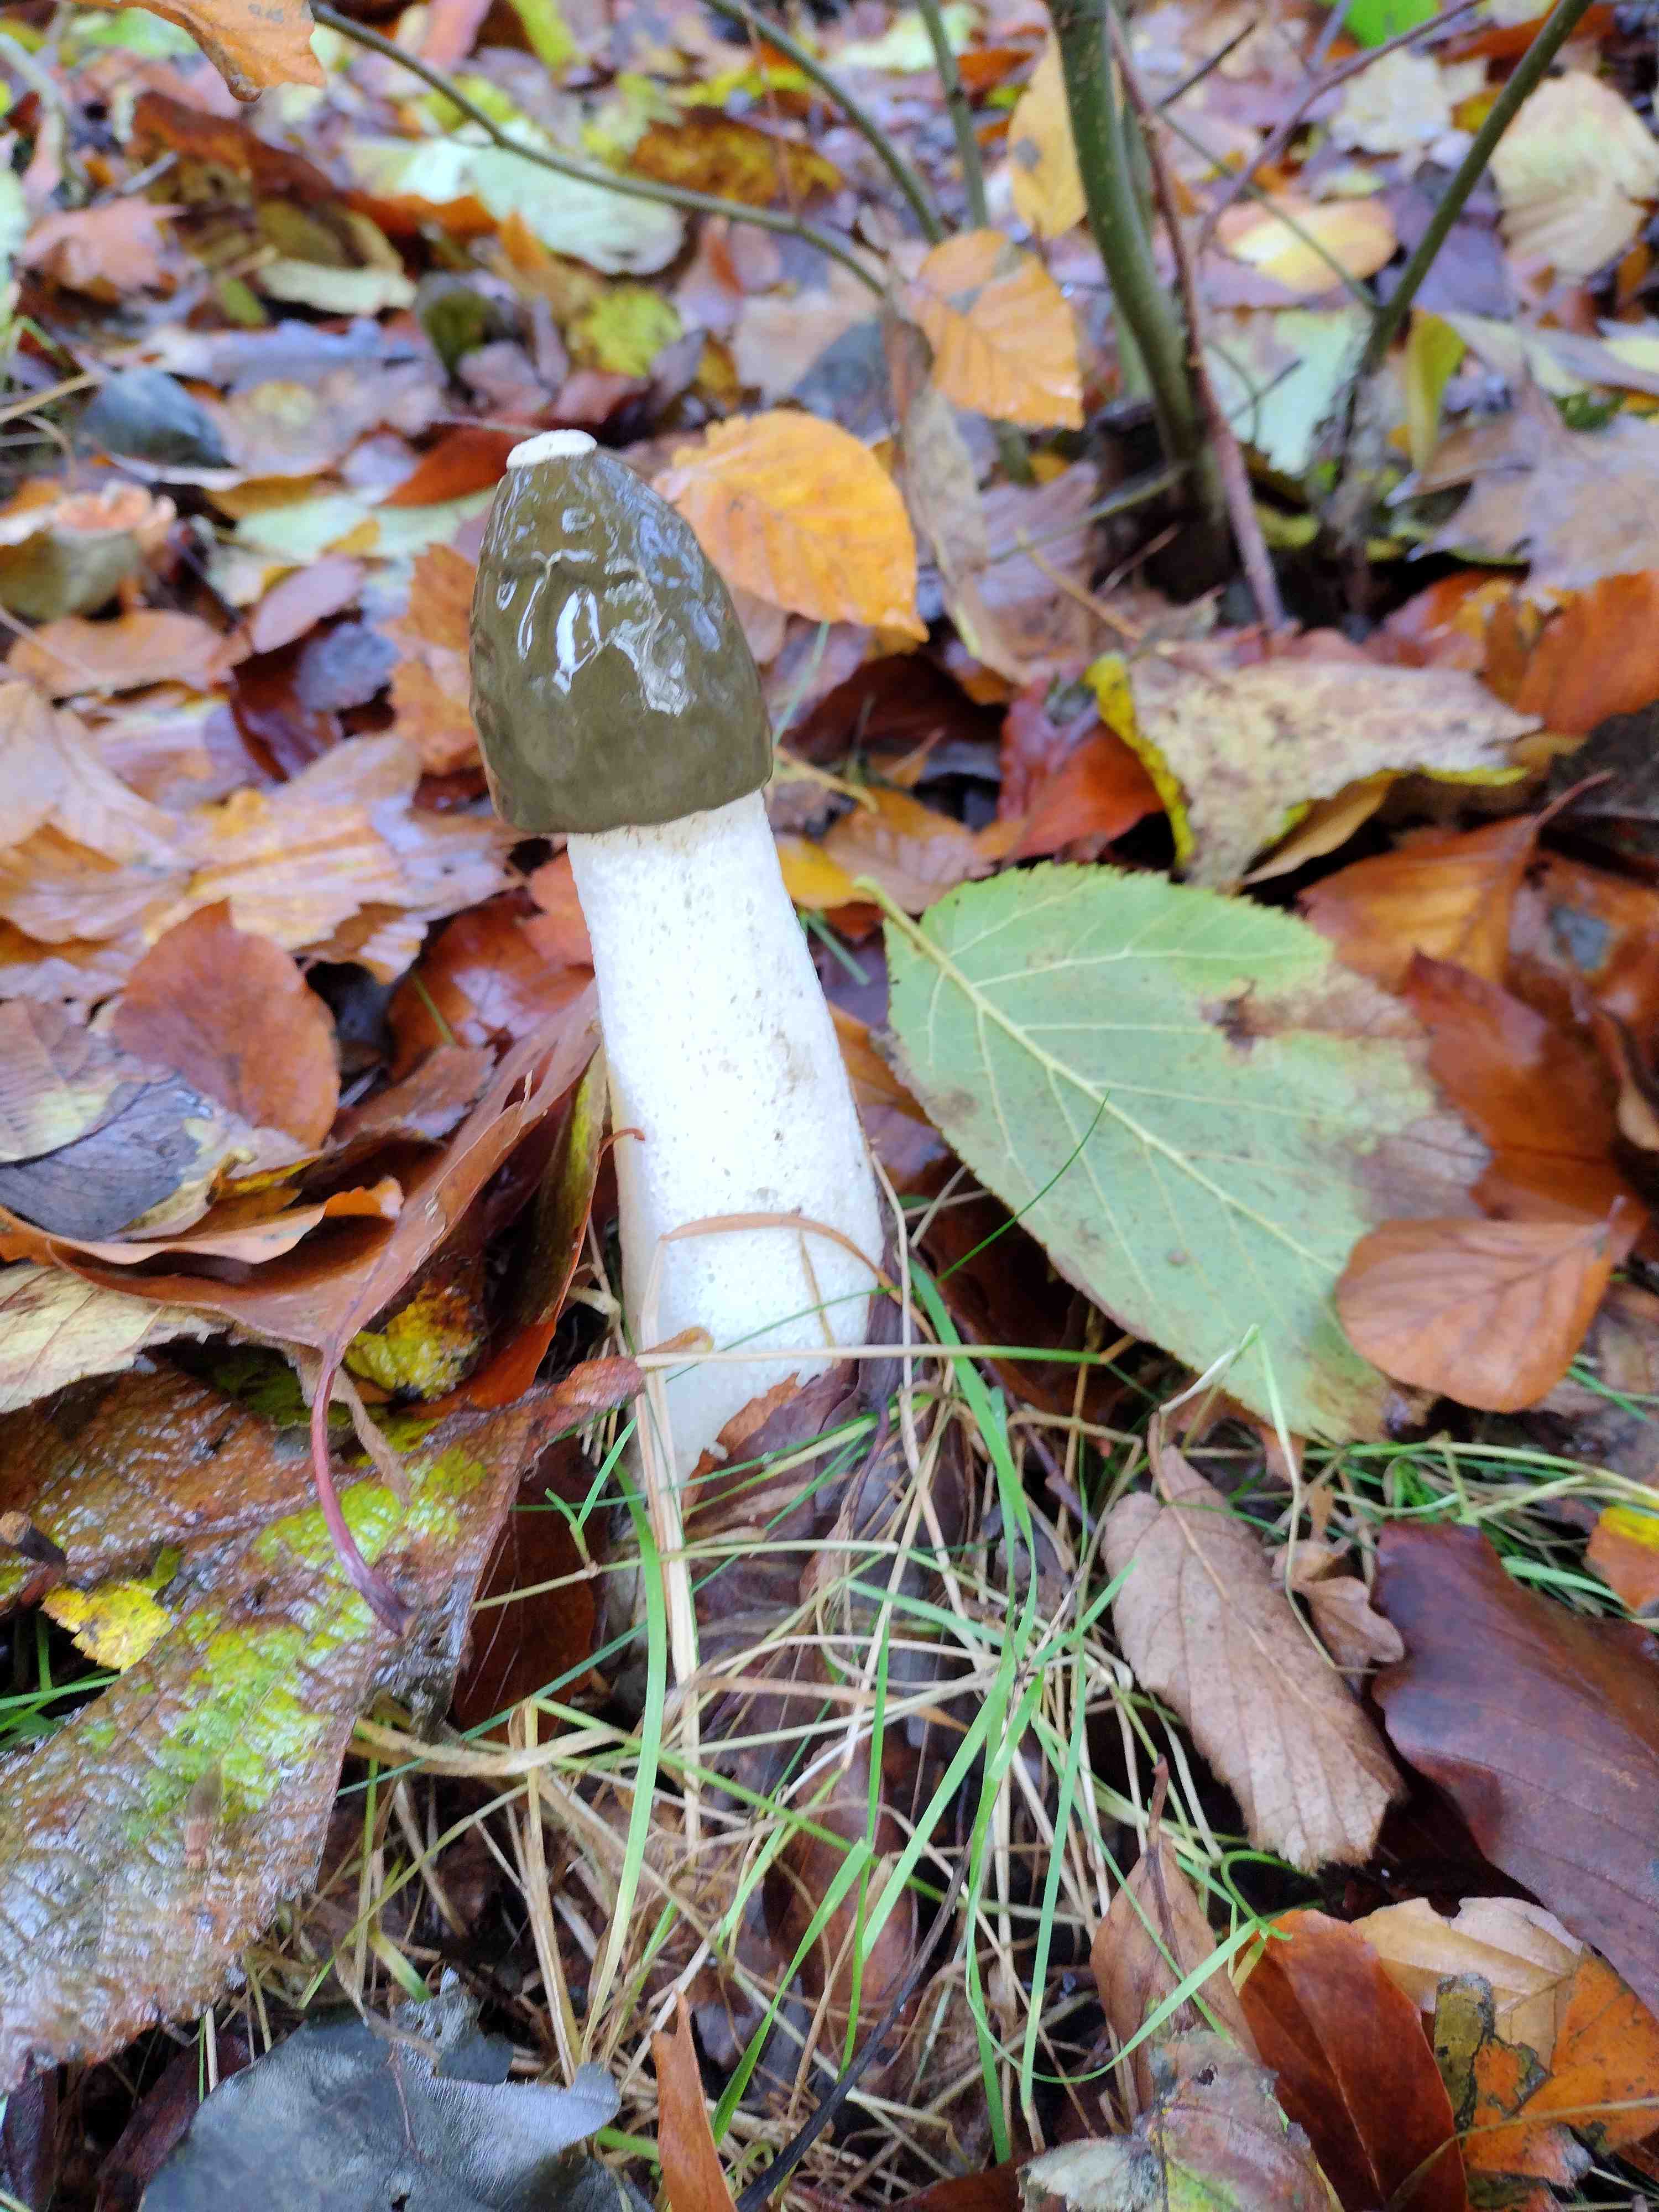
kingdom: Fungi
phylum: Basidiomycota
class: Agaricomycetes
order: Phallales
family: Phallaceae
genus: Phallus
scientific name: Phallus impudicus
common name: almindelig stinksvamp
